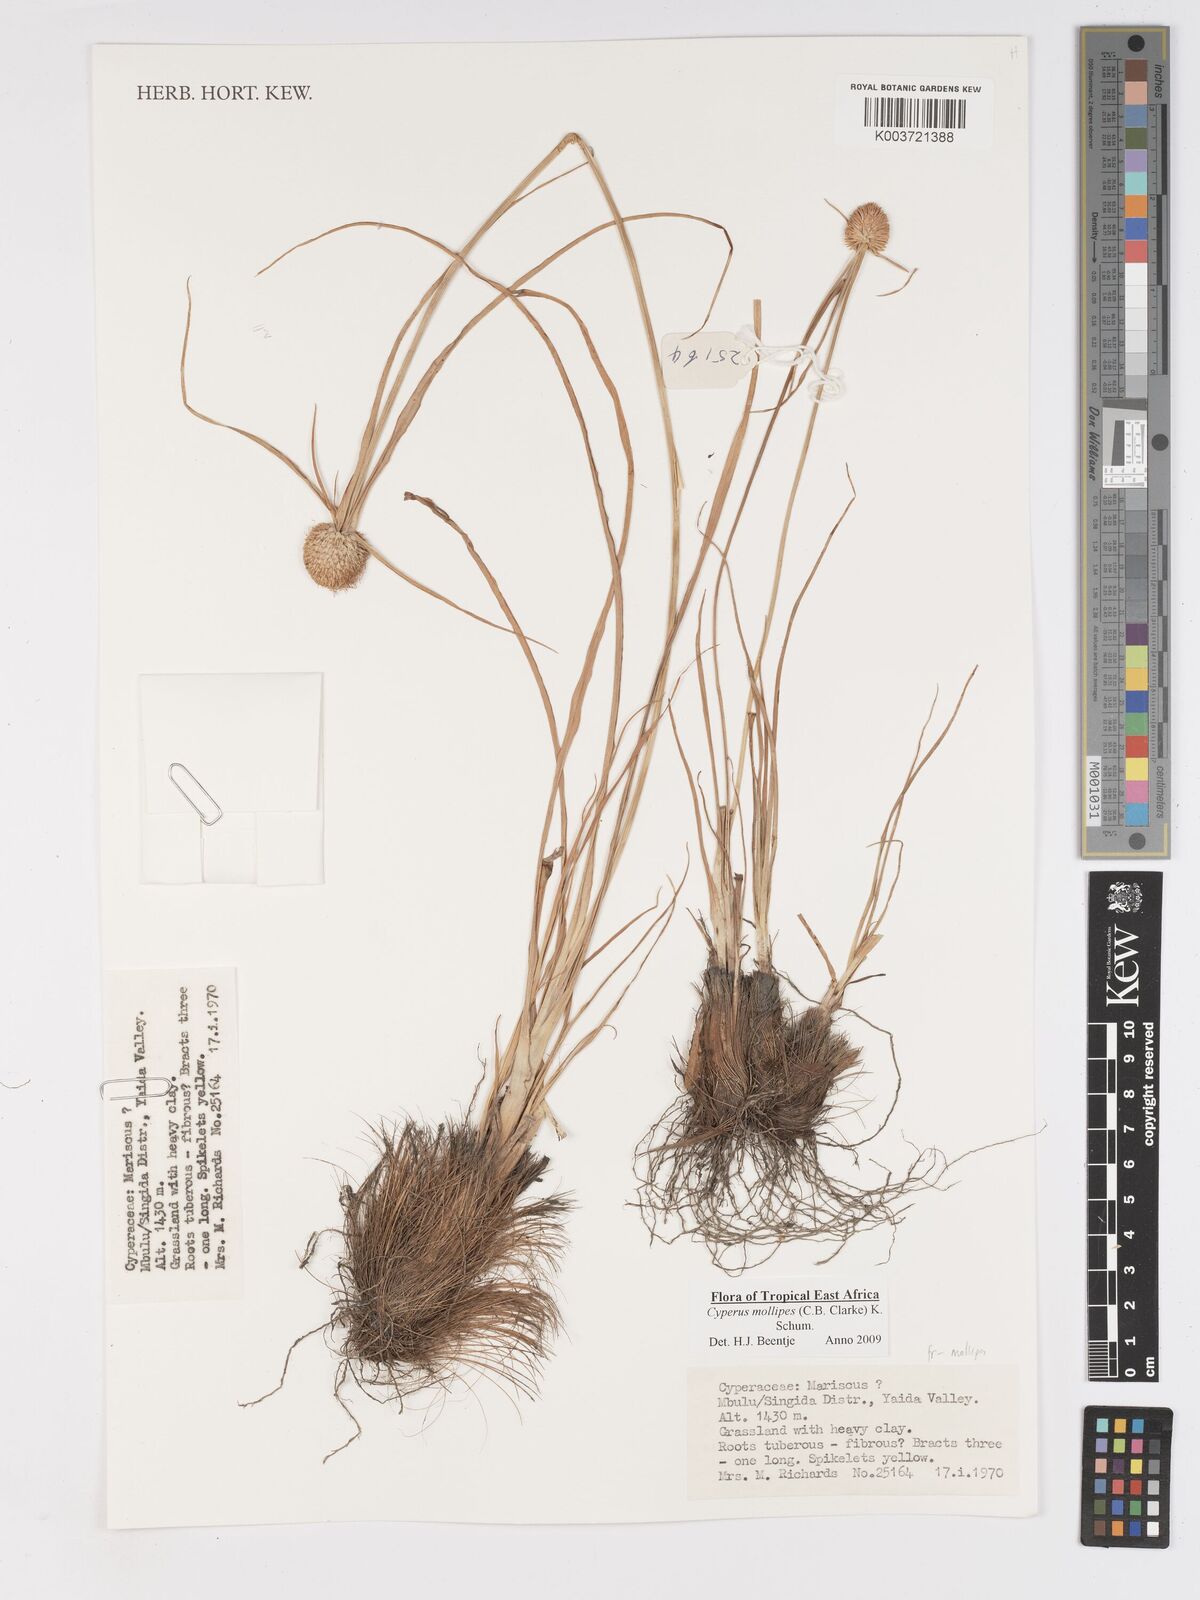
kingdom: Plantae
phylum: Tracheophyta
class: Liliopsida
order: Poales
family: Cyperaceae
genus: Cyperus
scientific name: Cyperus mollipes
